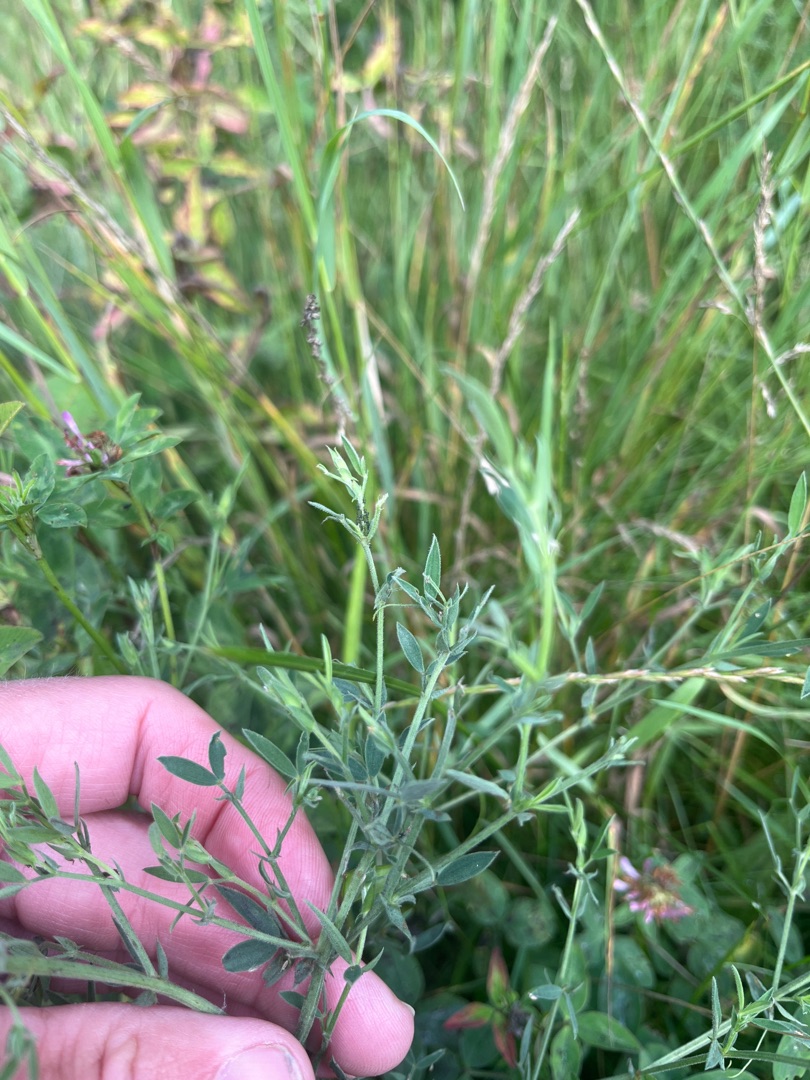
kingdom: Plantae
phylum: Tracheophyta
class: Magnoliopsida
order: Fabales
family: Fabaceae
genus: Lathyrus
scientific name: Lathyrus pratensis
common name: Gul fladbælg
